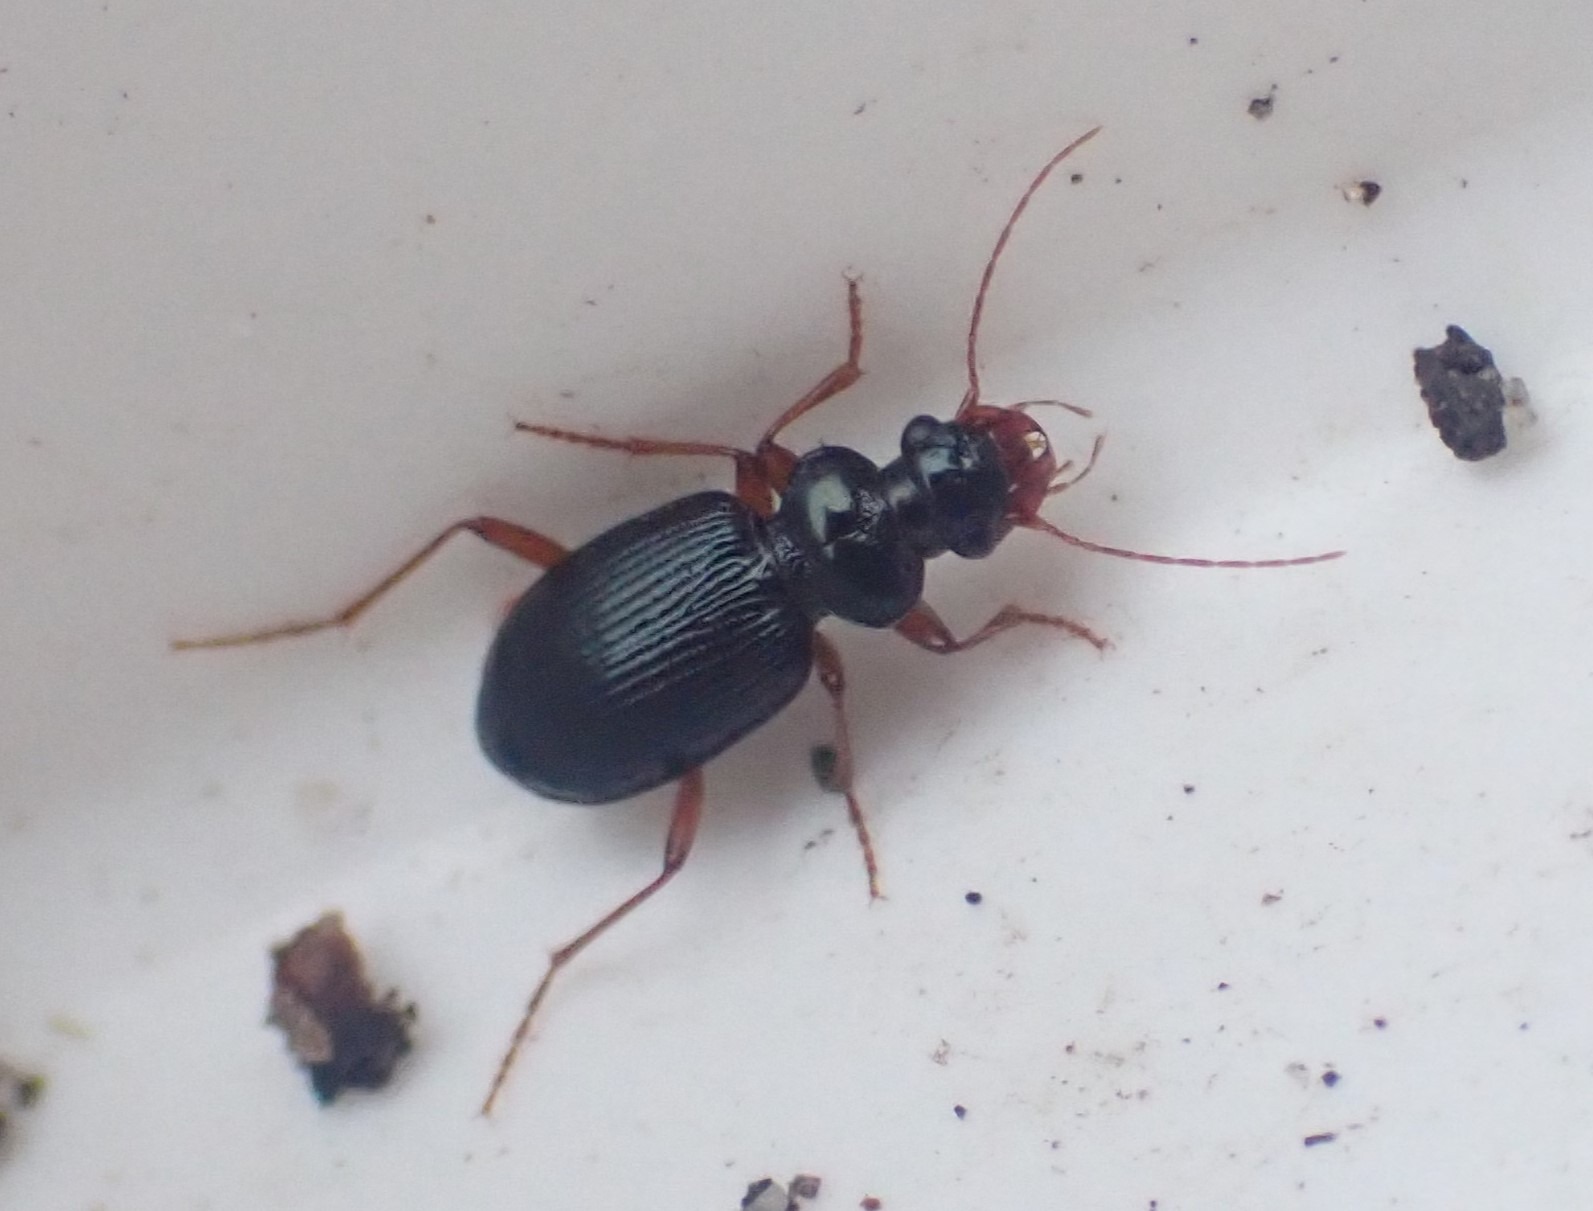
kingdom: Animalia
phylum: Arthropoda
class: Insecta
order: Coleoptera
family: Carabidae
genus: Leistus
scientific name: Leistus fulvibarbis
